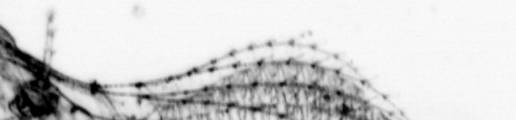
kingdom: Animalia
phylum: Chordata
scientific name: Chordata
